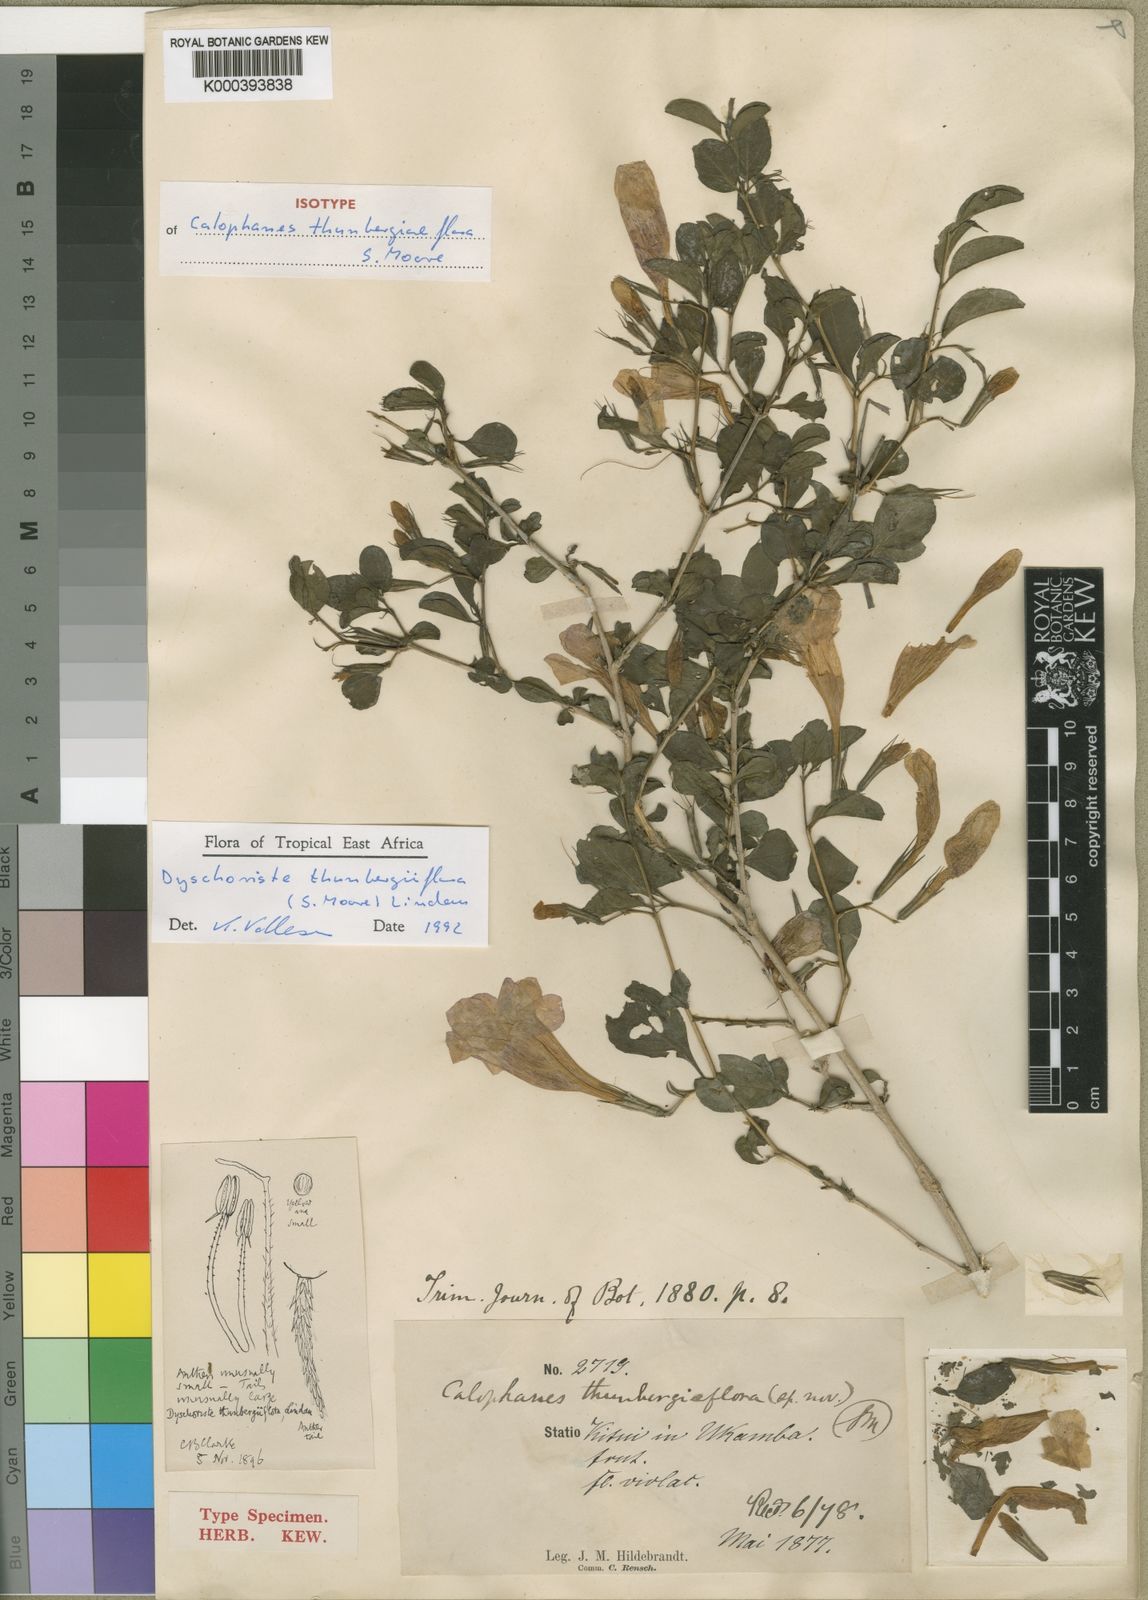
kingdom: Plantae
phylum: Tracheophyta
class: Magnoliopsida
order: Lamiales
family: Acanthaceae
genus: Dyschoriste
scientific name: Dyschoriste thunbergiiflora
